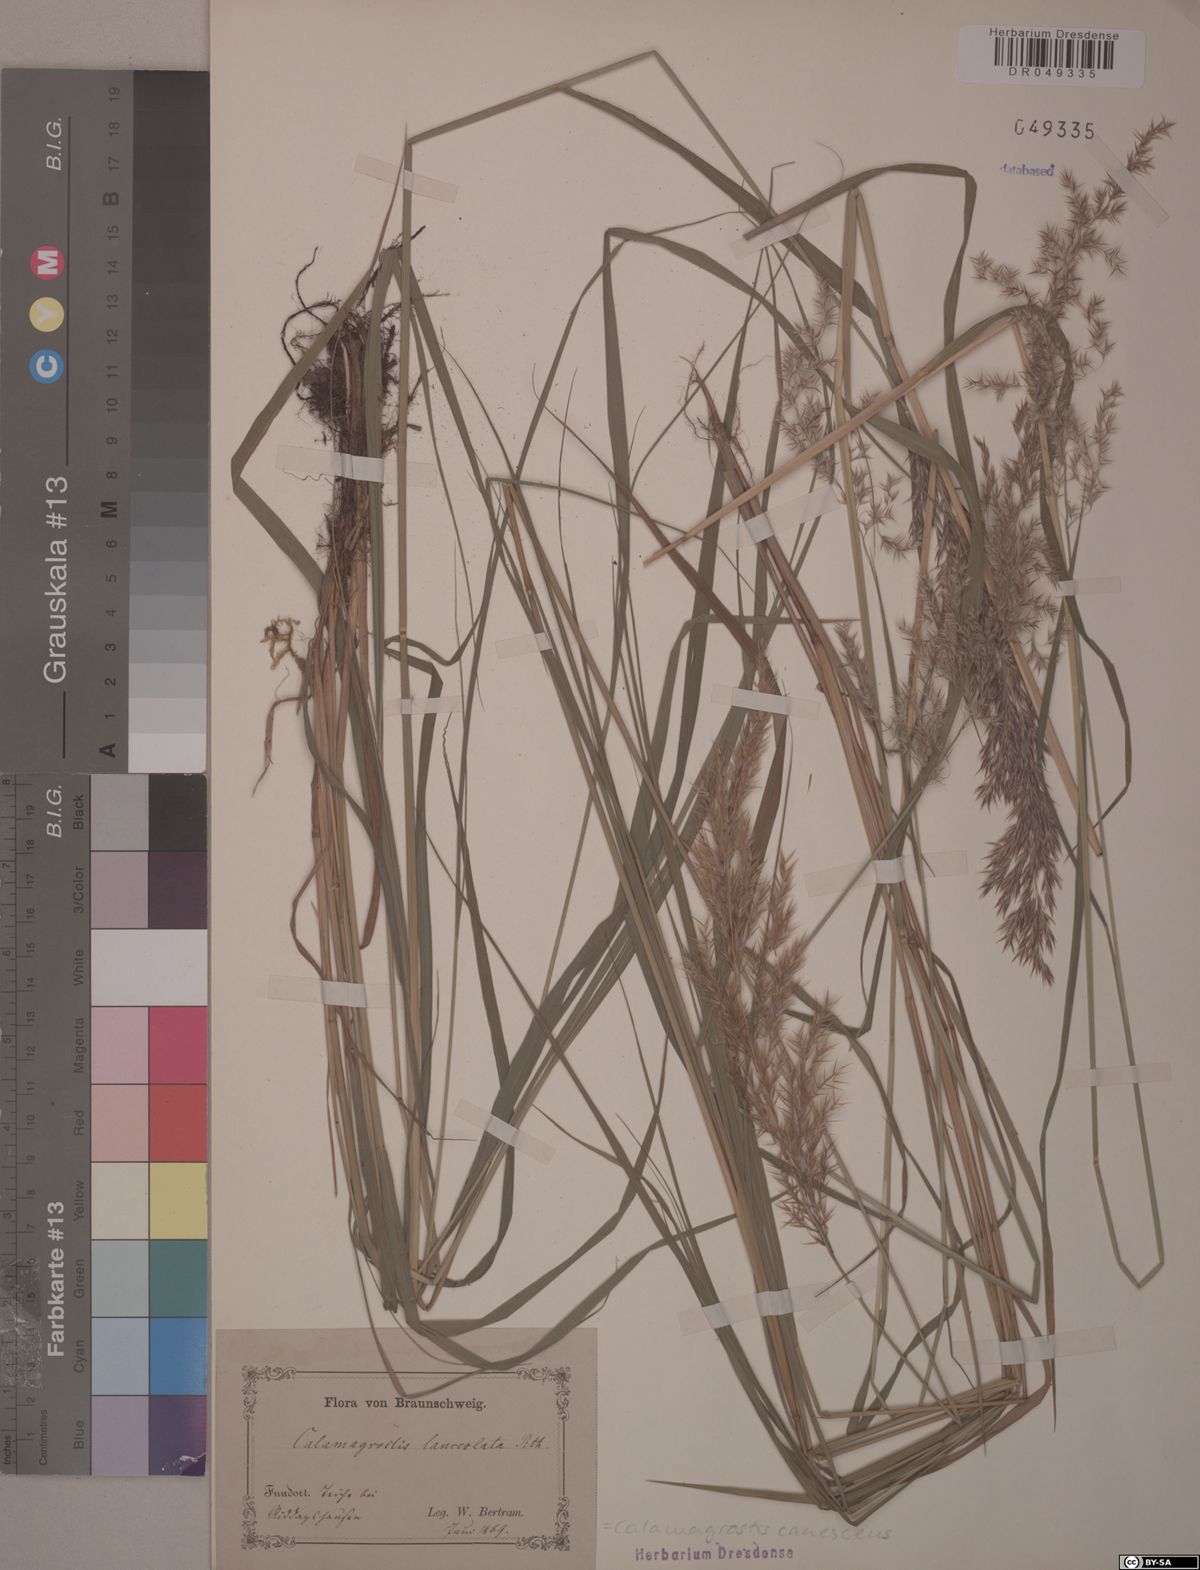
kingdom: Plantae
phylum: Tracheophyta
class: Liliopsida
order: Poales
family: Poaceae
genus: Calamagrostis
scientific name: Calamagrostis canescens
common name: Purple small-reed
